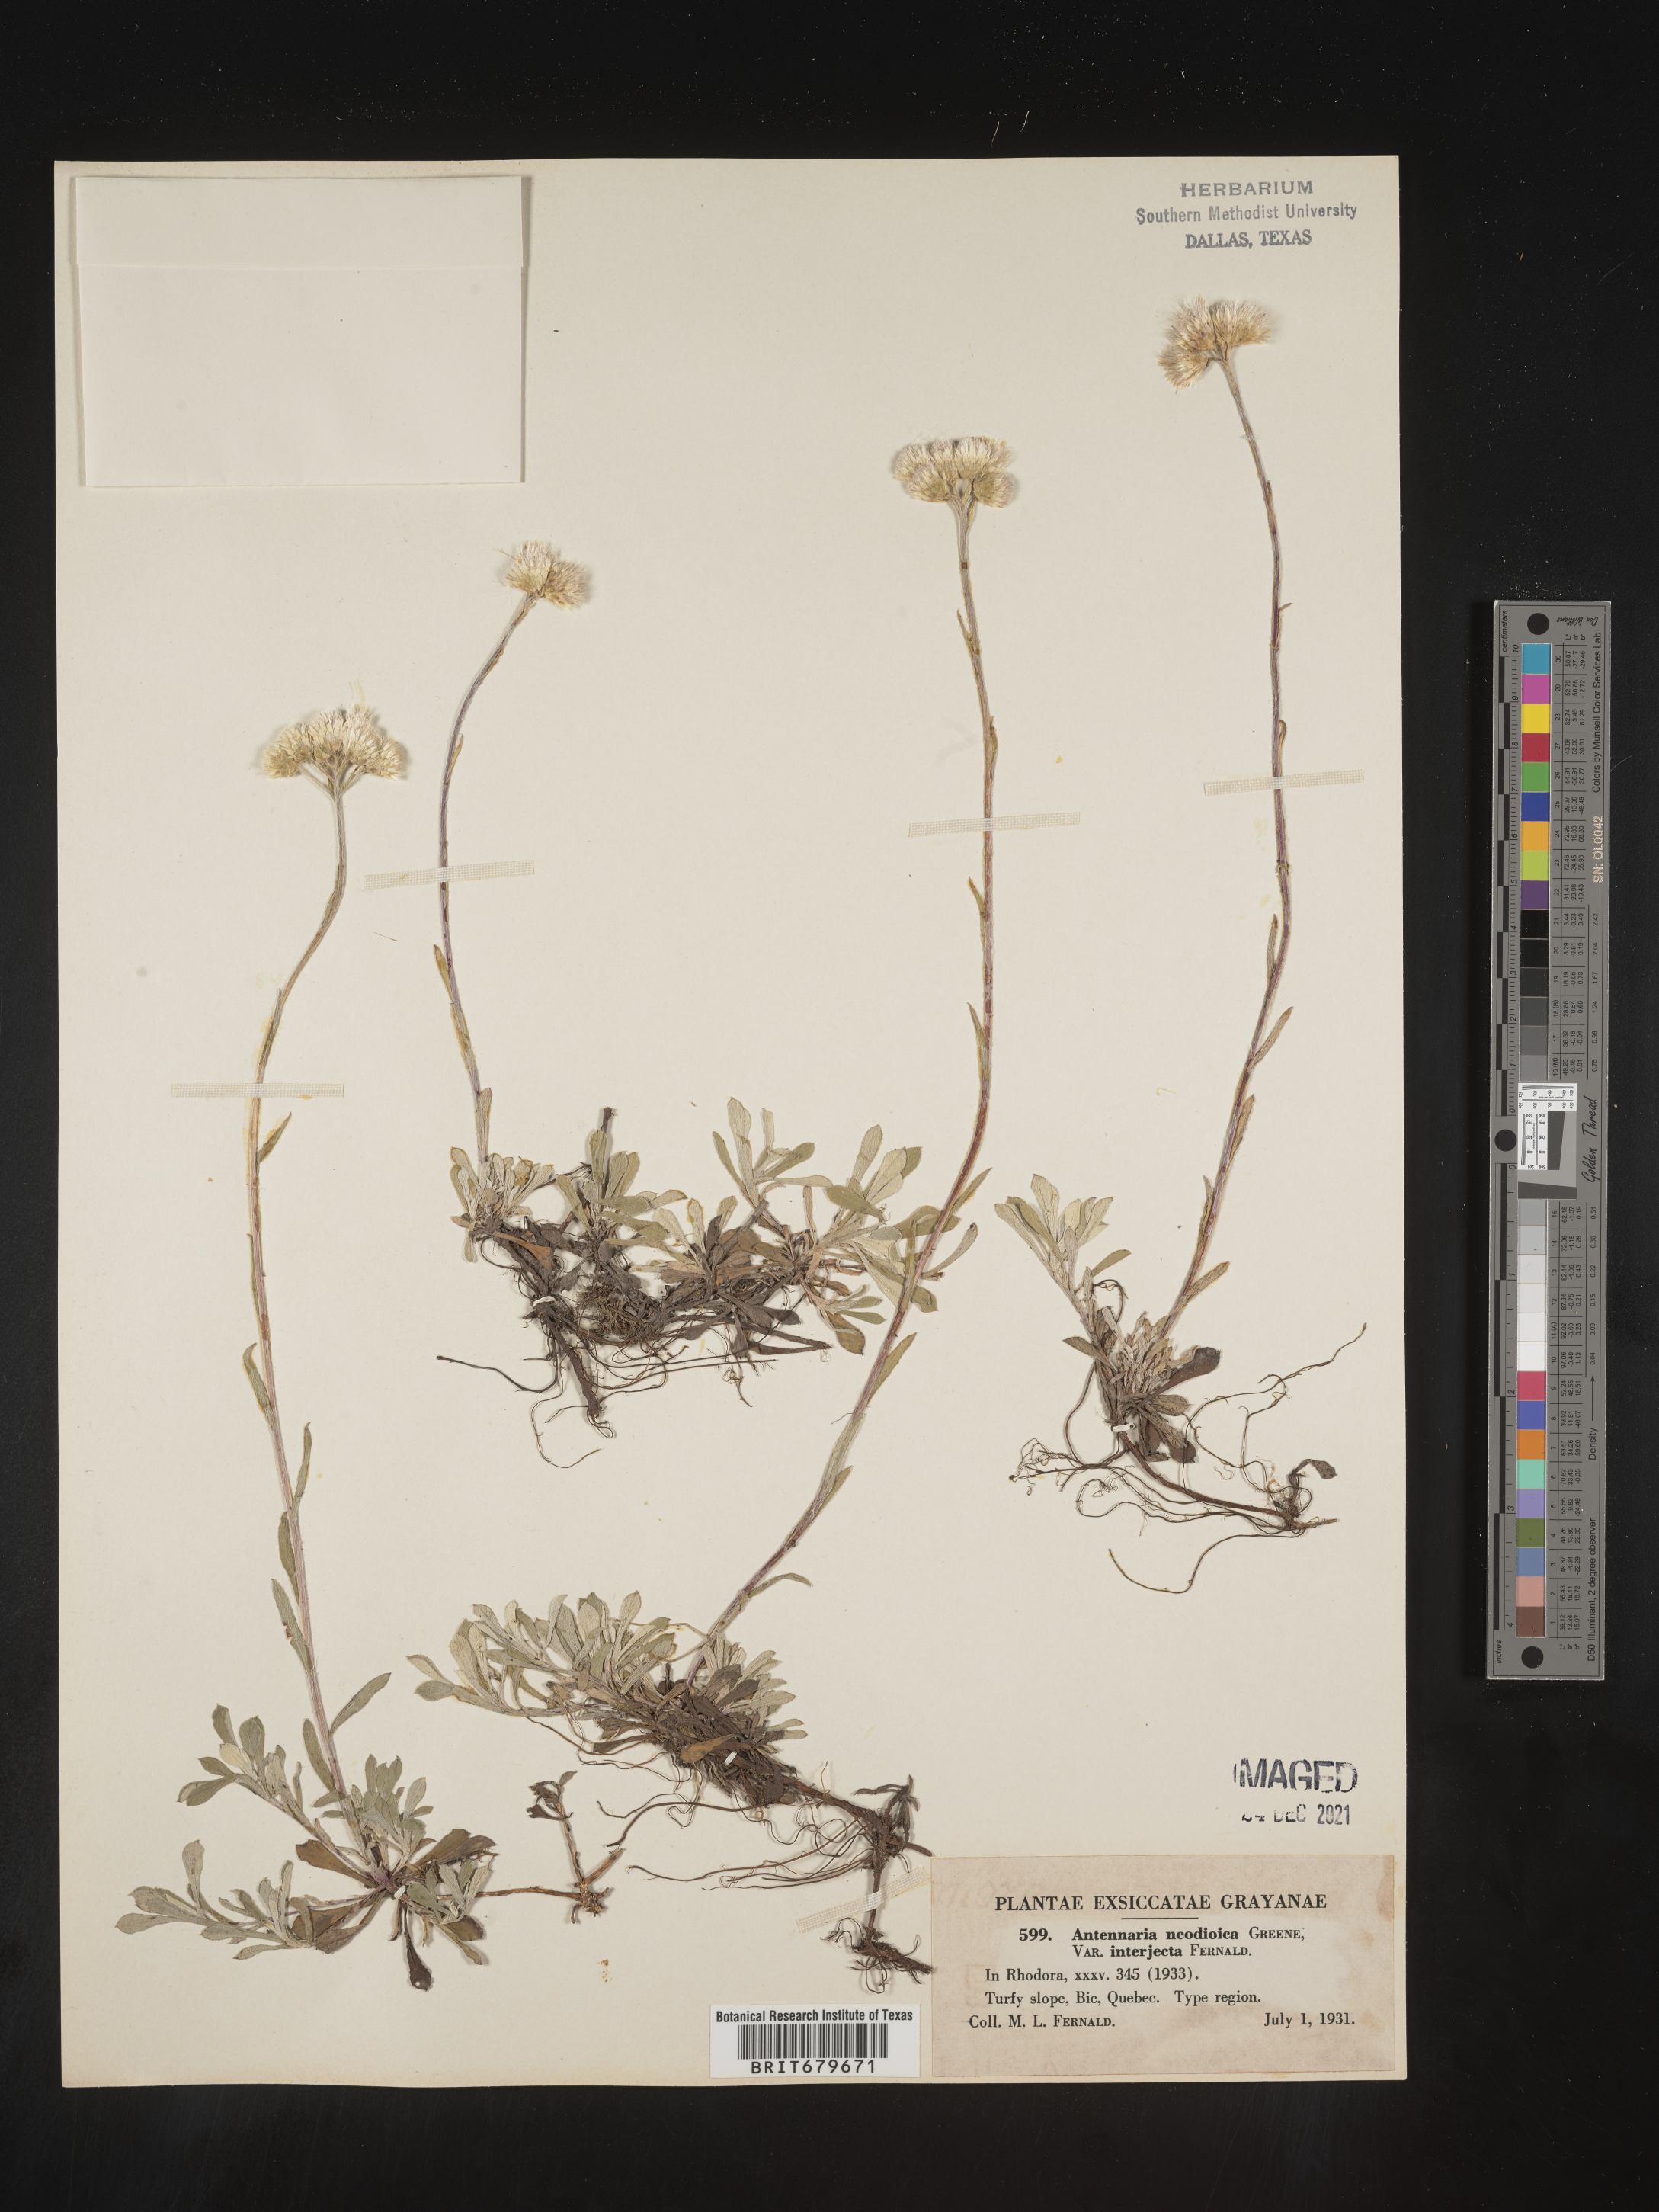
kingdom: Plantae
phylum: Tracheophyta
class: Magnoliopsida
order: Asterales
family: Asteraceae
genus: Antennaria
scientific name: Antennaria howellii
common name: Howell's pussytoes
